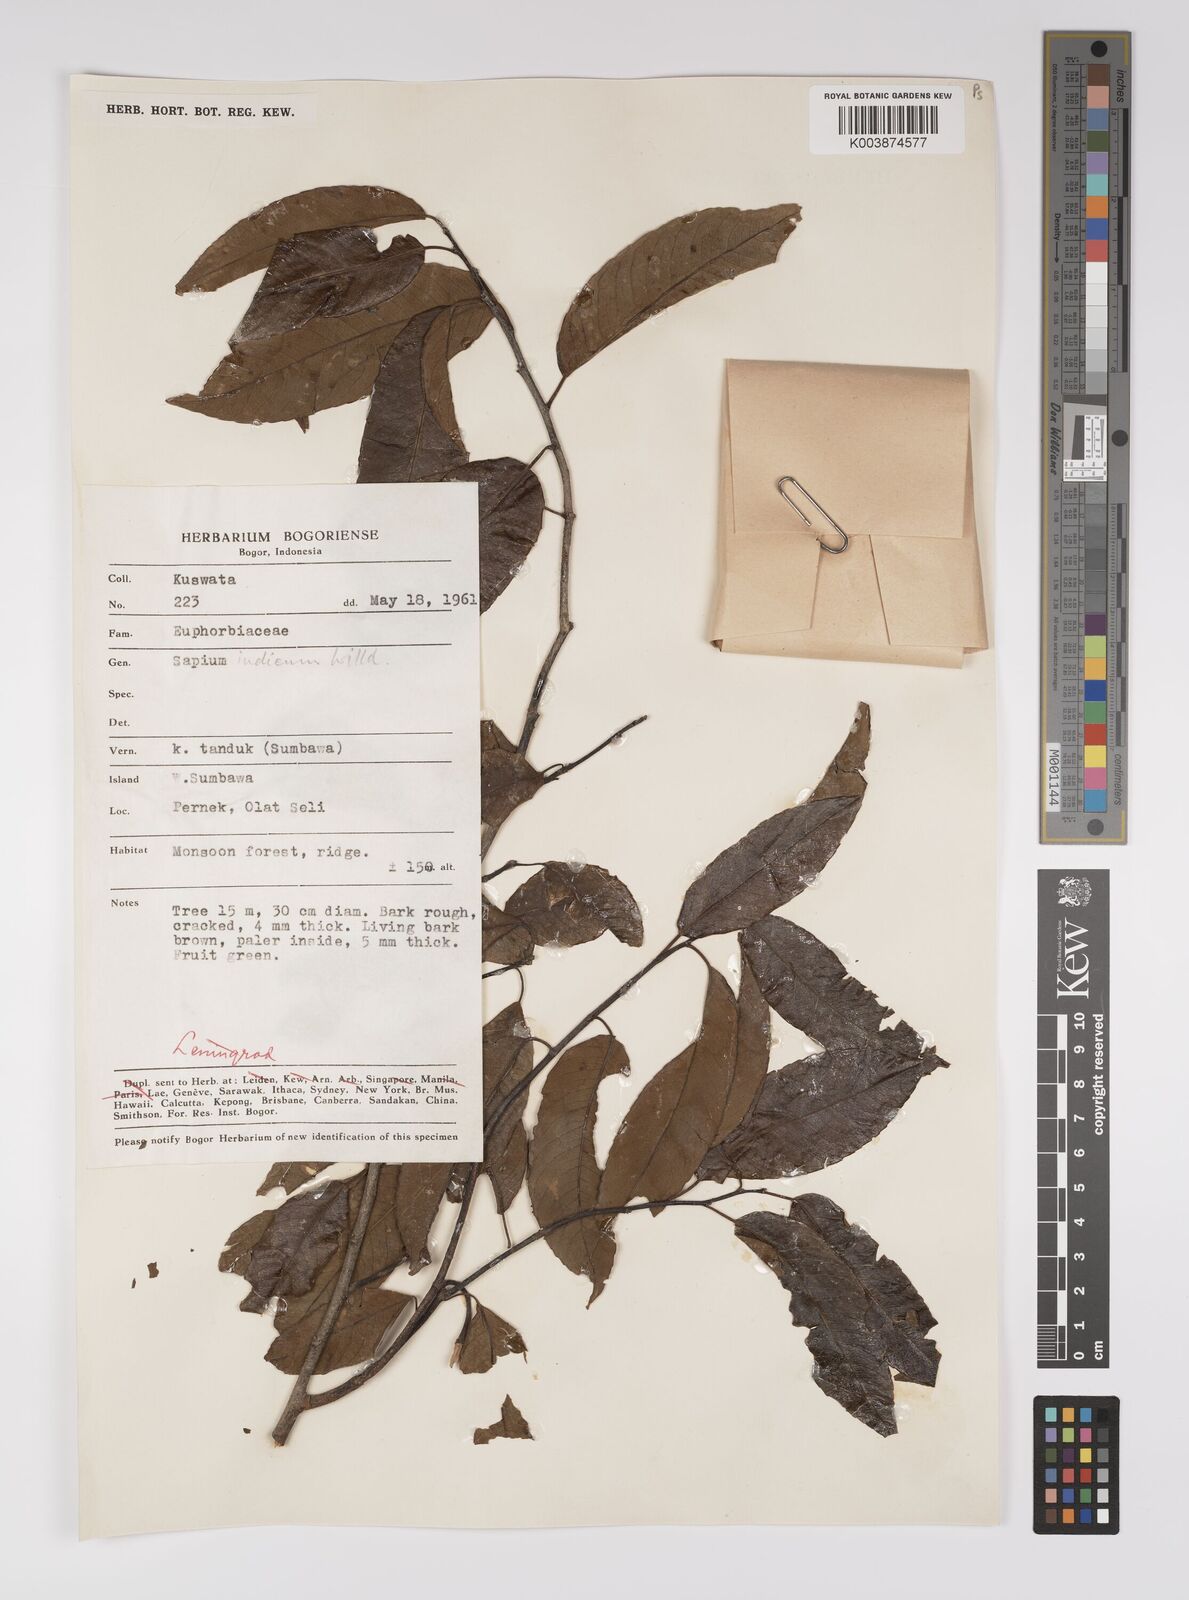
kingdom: Plantae
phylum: Tracheophyta
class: Magnoliopsida
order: Malpighiales
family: Euphorbiaceae
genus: Shirakiopsis
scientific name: Shirakiopsis indica
